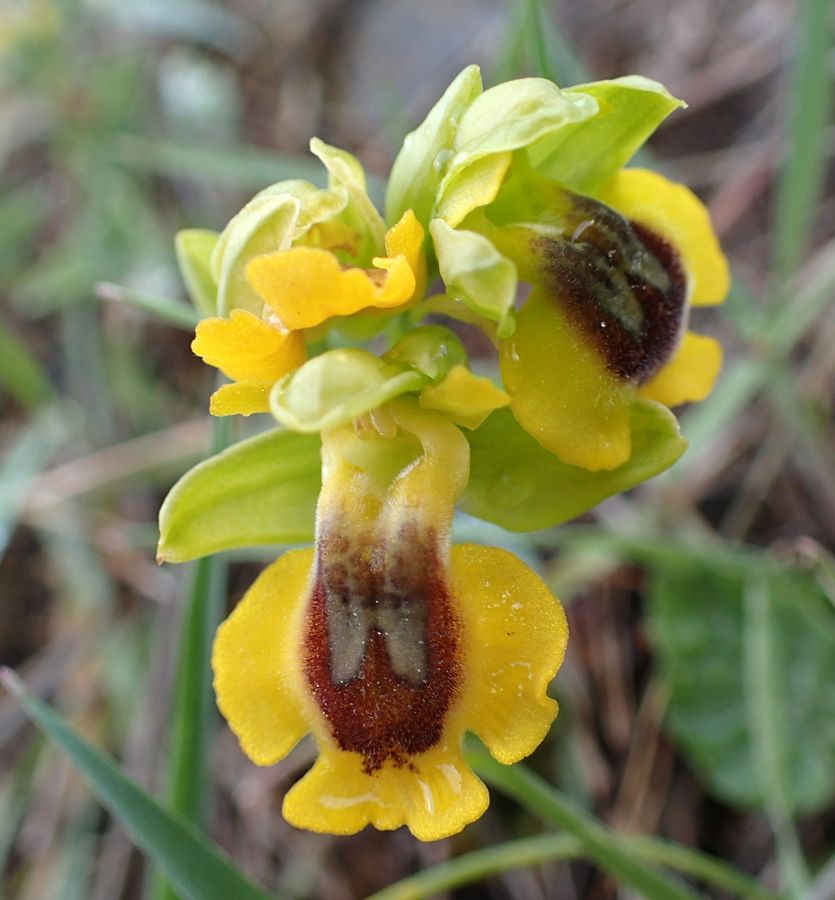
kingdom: Plantae
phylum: Tracheophyta
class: Liliopsida
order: Asparagales
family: Orchidaceae
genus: Ophrys
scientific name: Ophrys lutea
